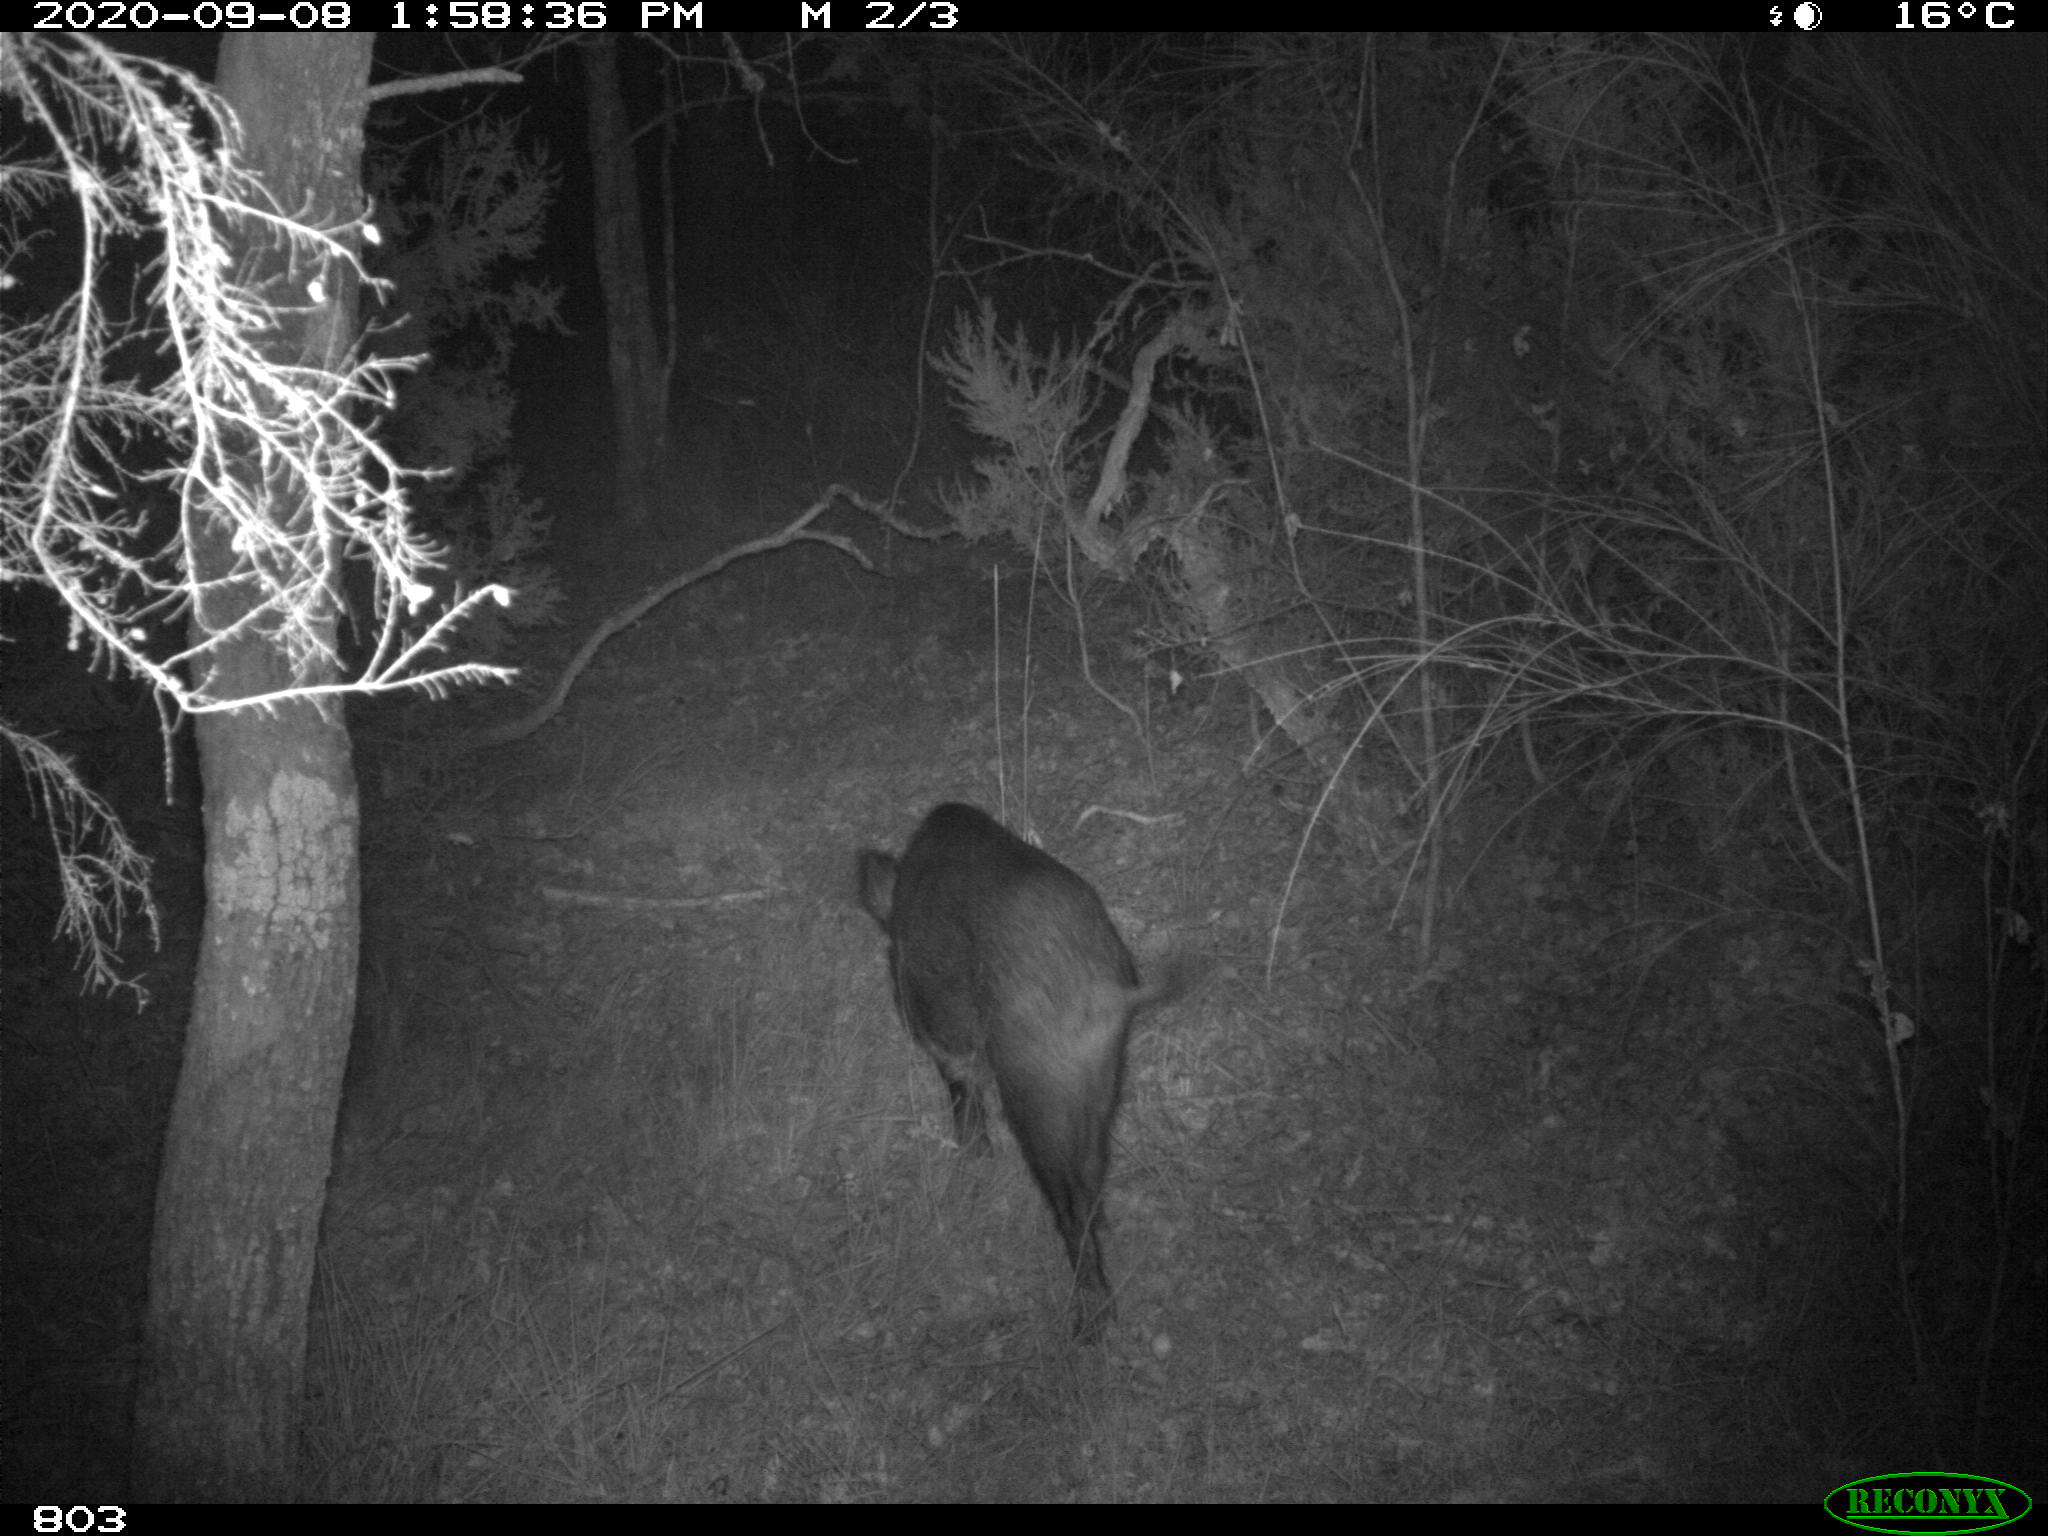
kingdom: Animalia
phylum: Chordata
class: Mammalia
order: Artiodactyla
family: Suidae
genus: Sus
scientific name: Sus scrofa
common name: Wild boar
